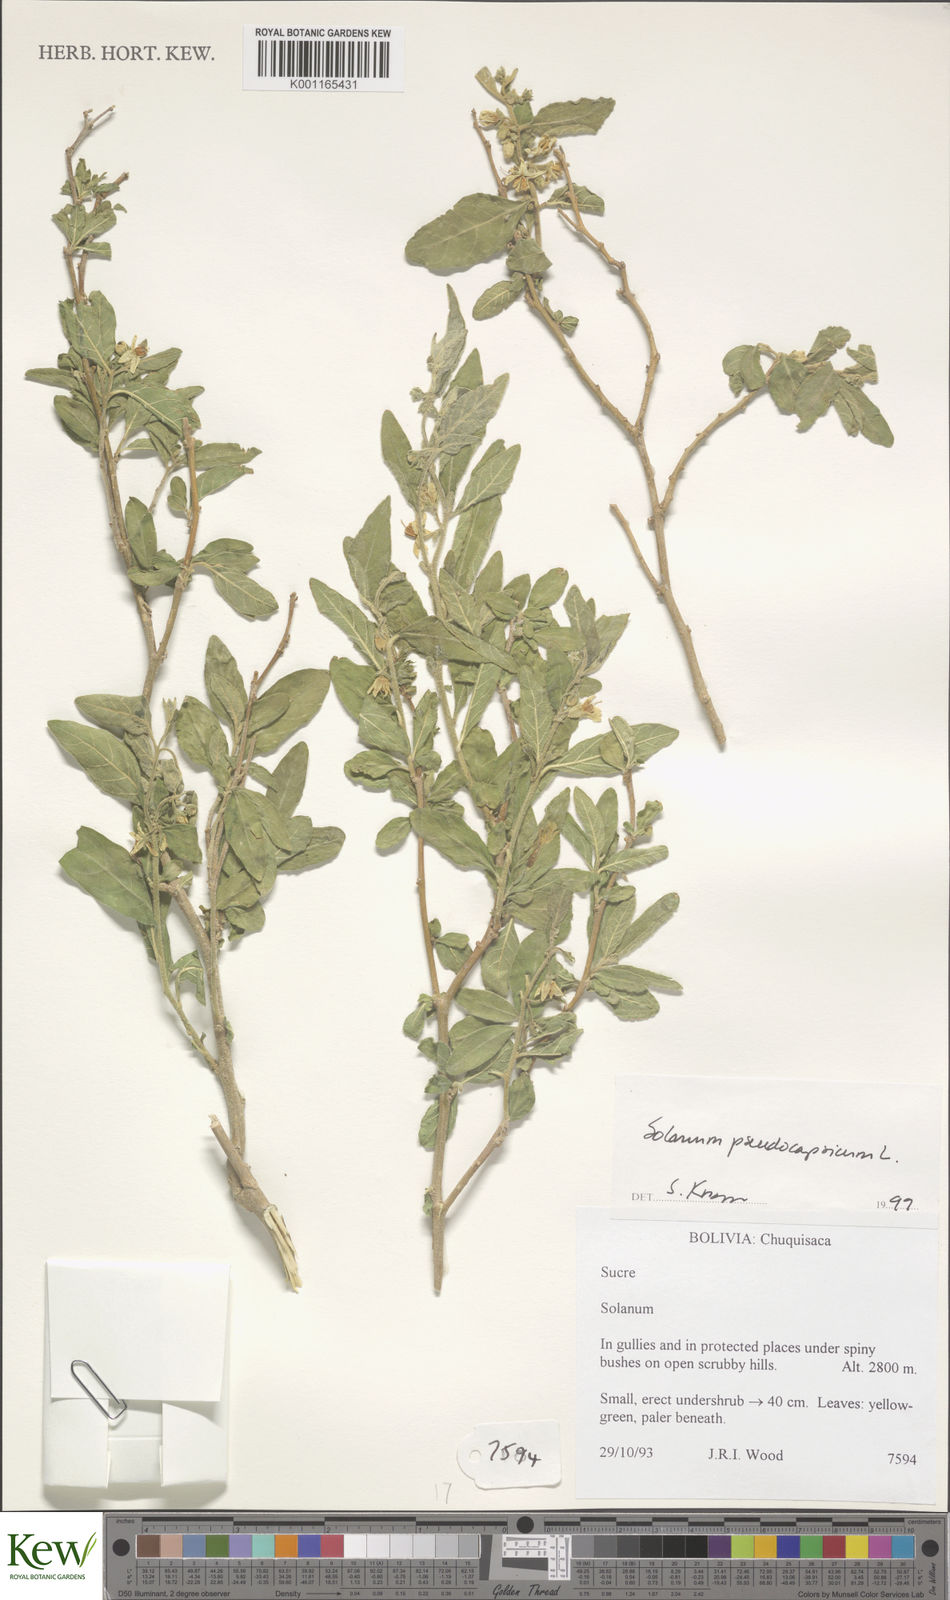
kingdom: Plantae
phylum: Tracheophyta
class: Magnoliopsida
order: Solanales
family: Solanaceae
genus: Solanum
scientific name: Solanum pseudocapsicum
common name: Jerusalem cherry
